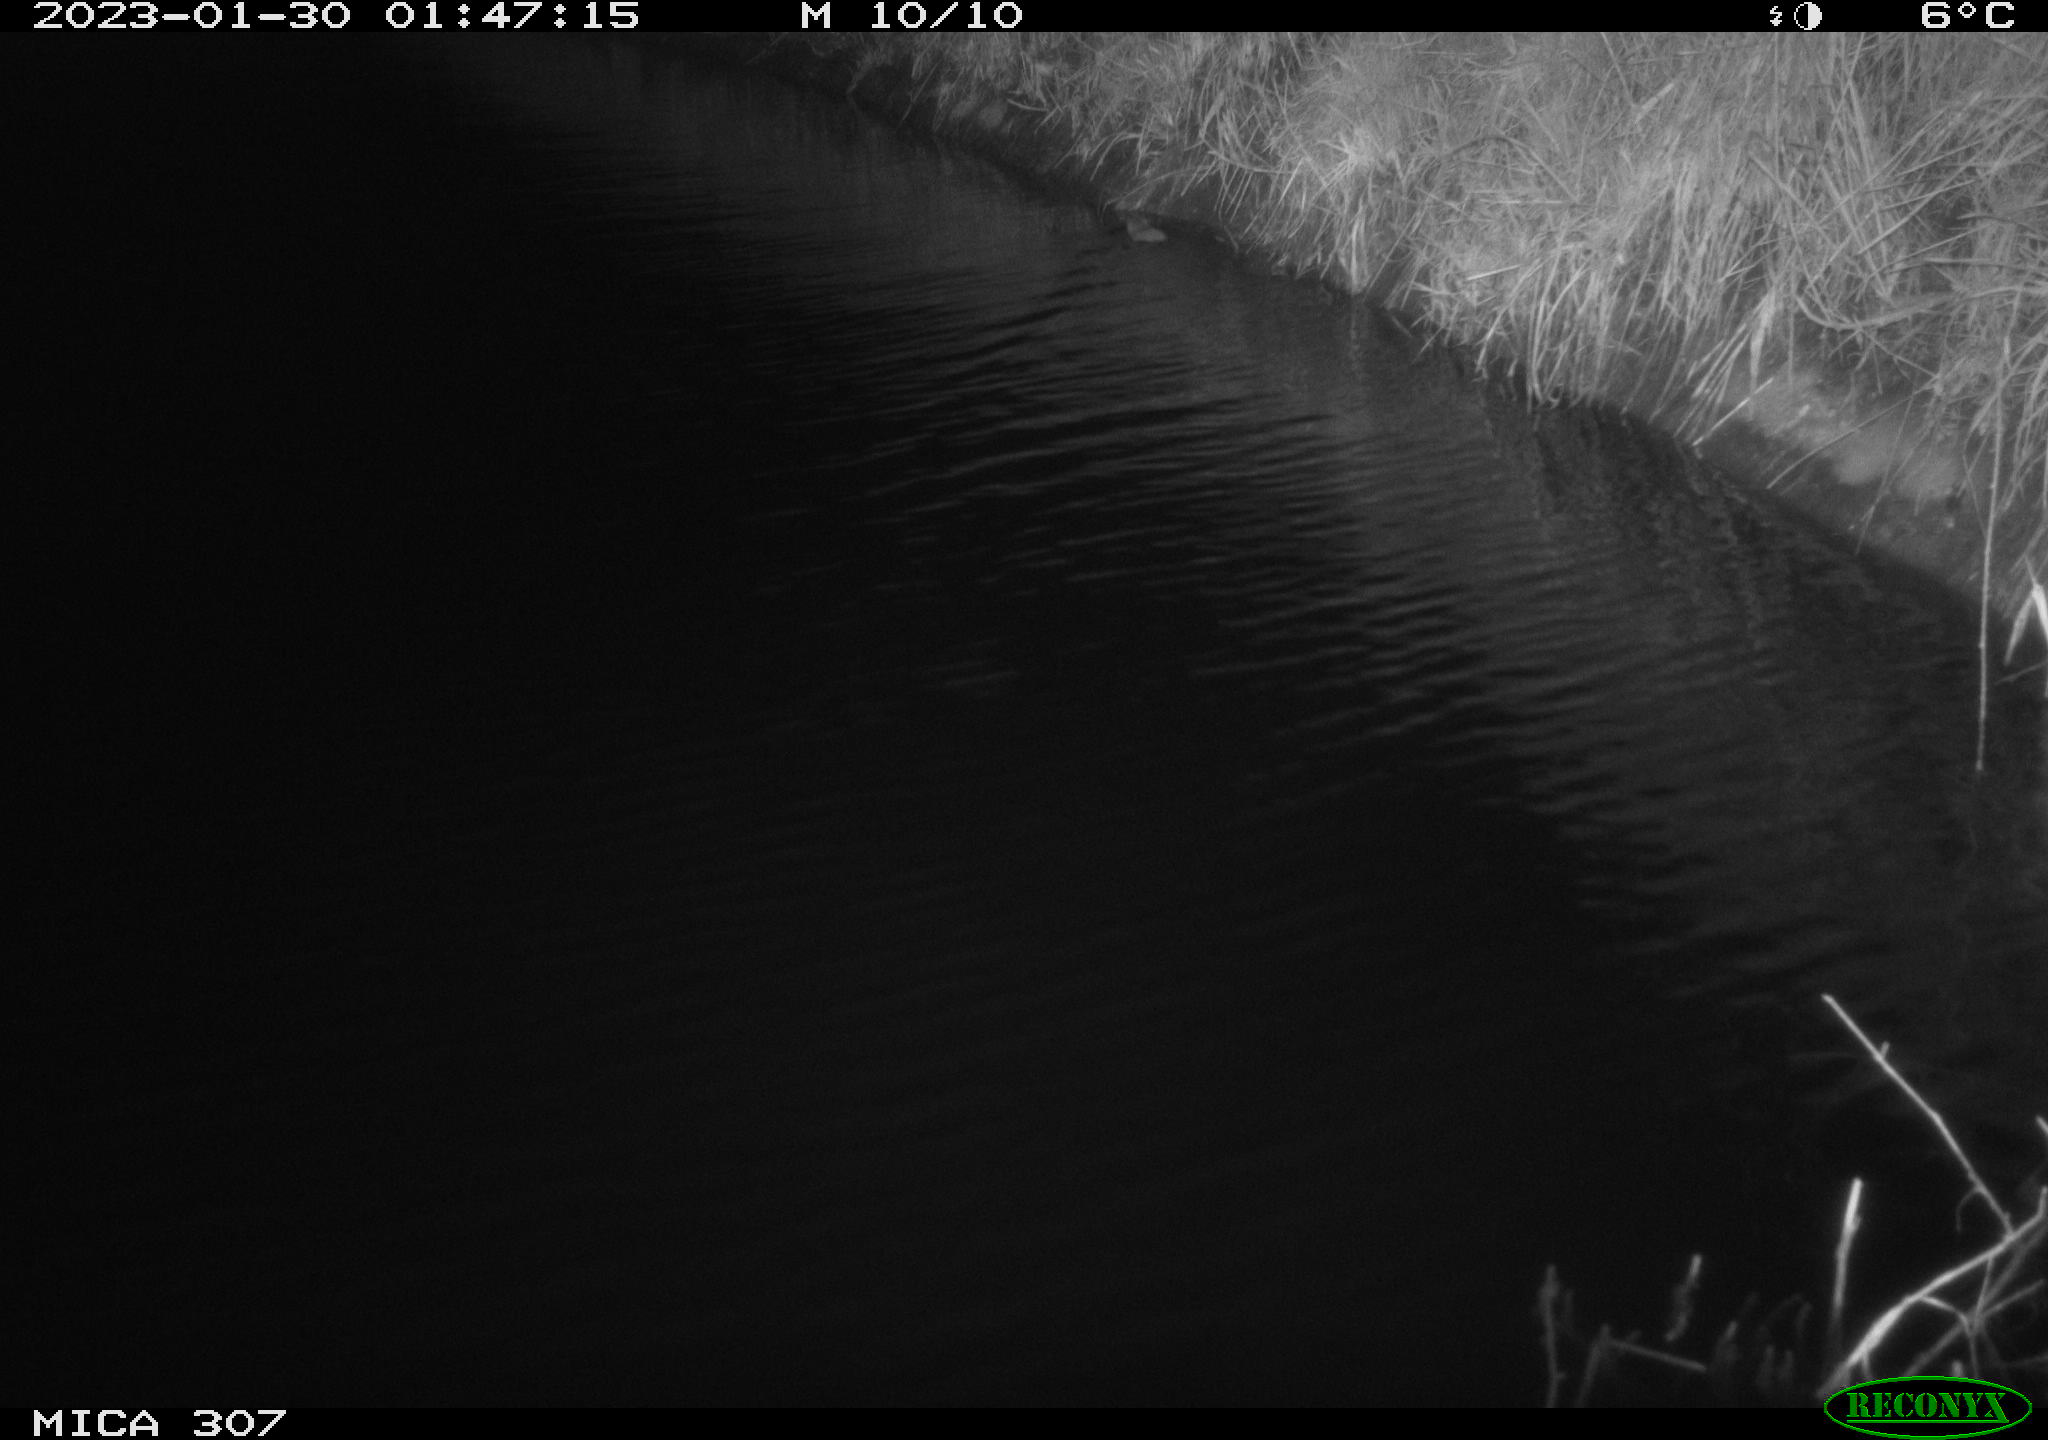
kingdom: Animalia
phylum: Chordata
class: Mammalia
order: Rodentia
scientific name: Rodentia
